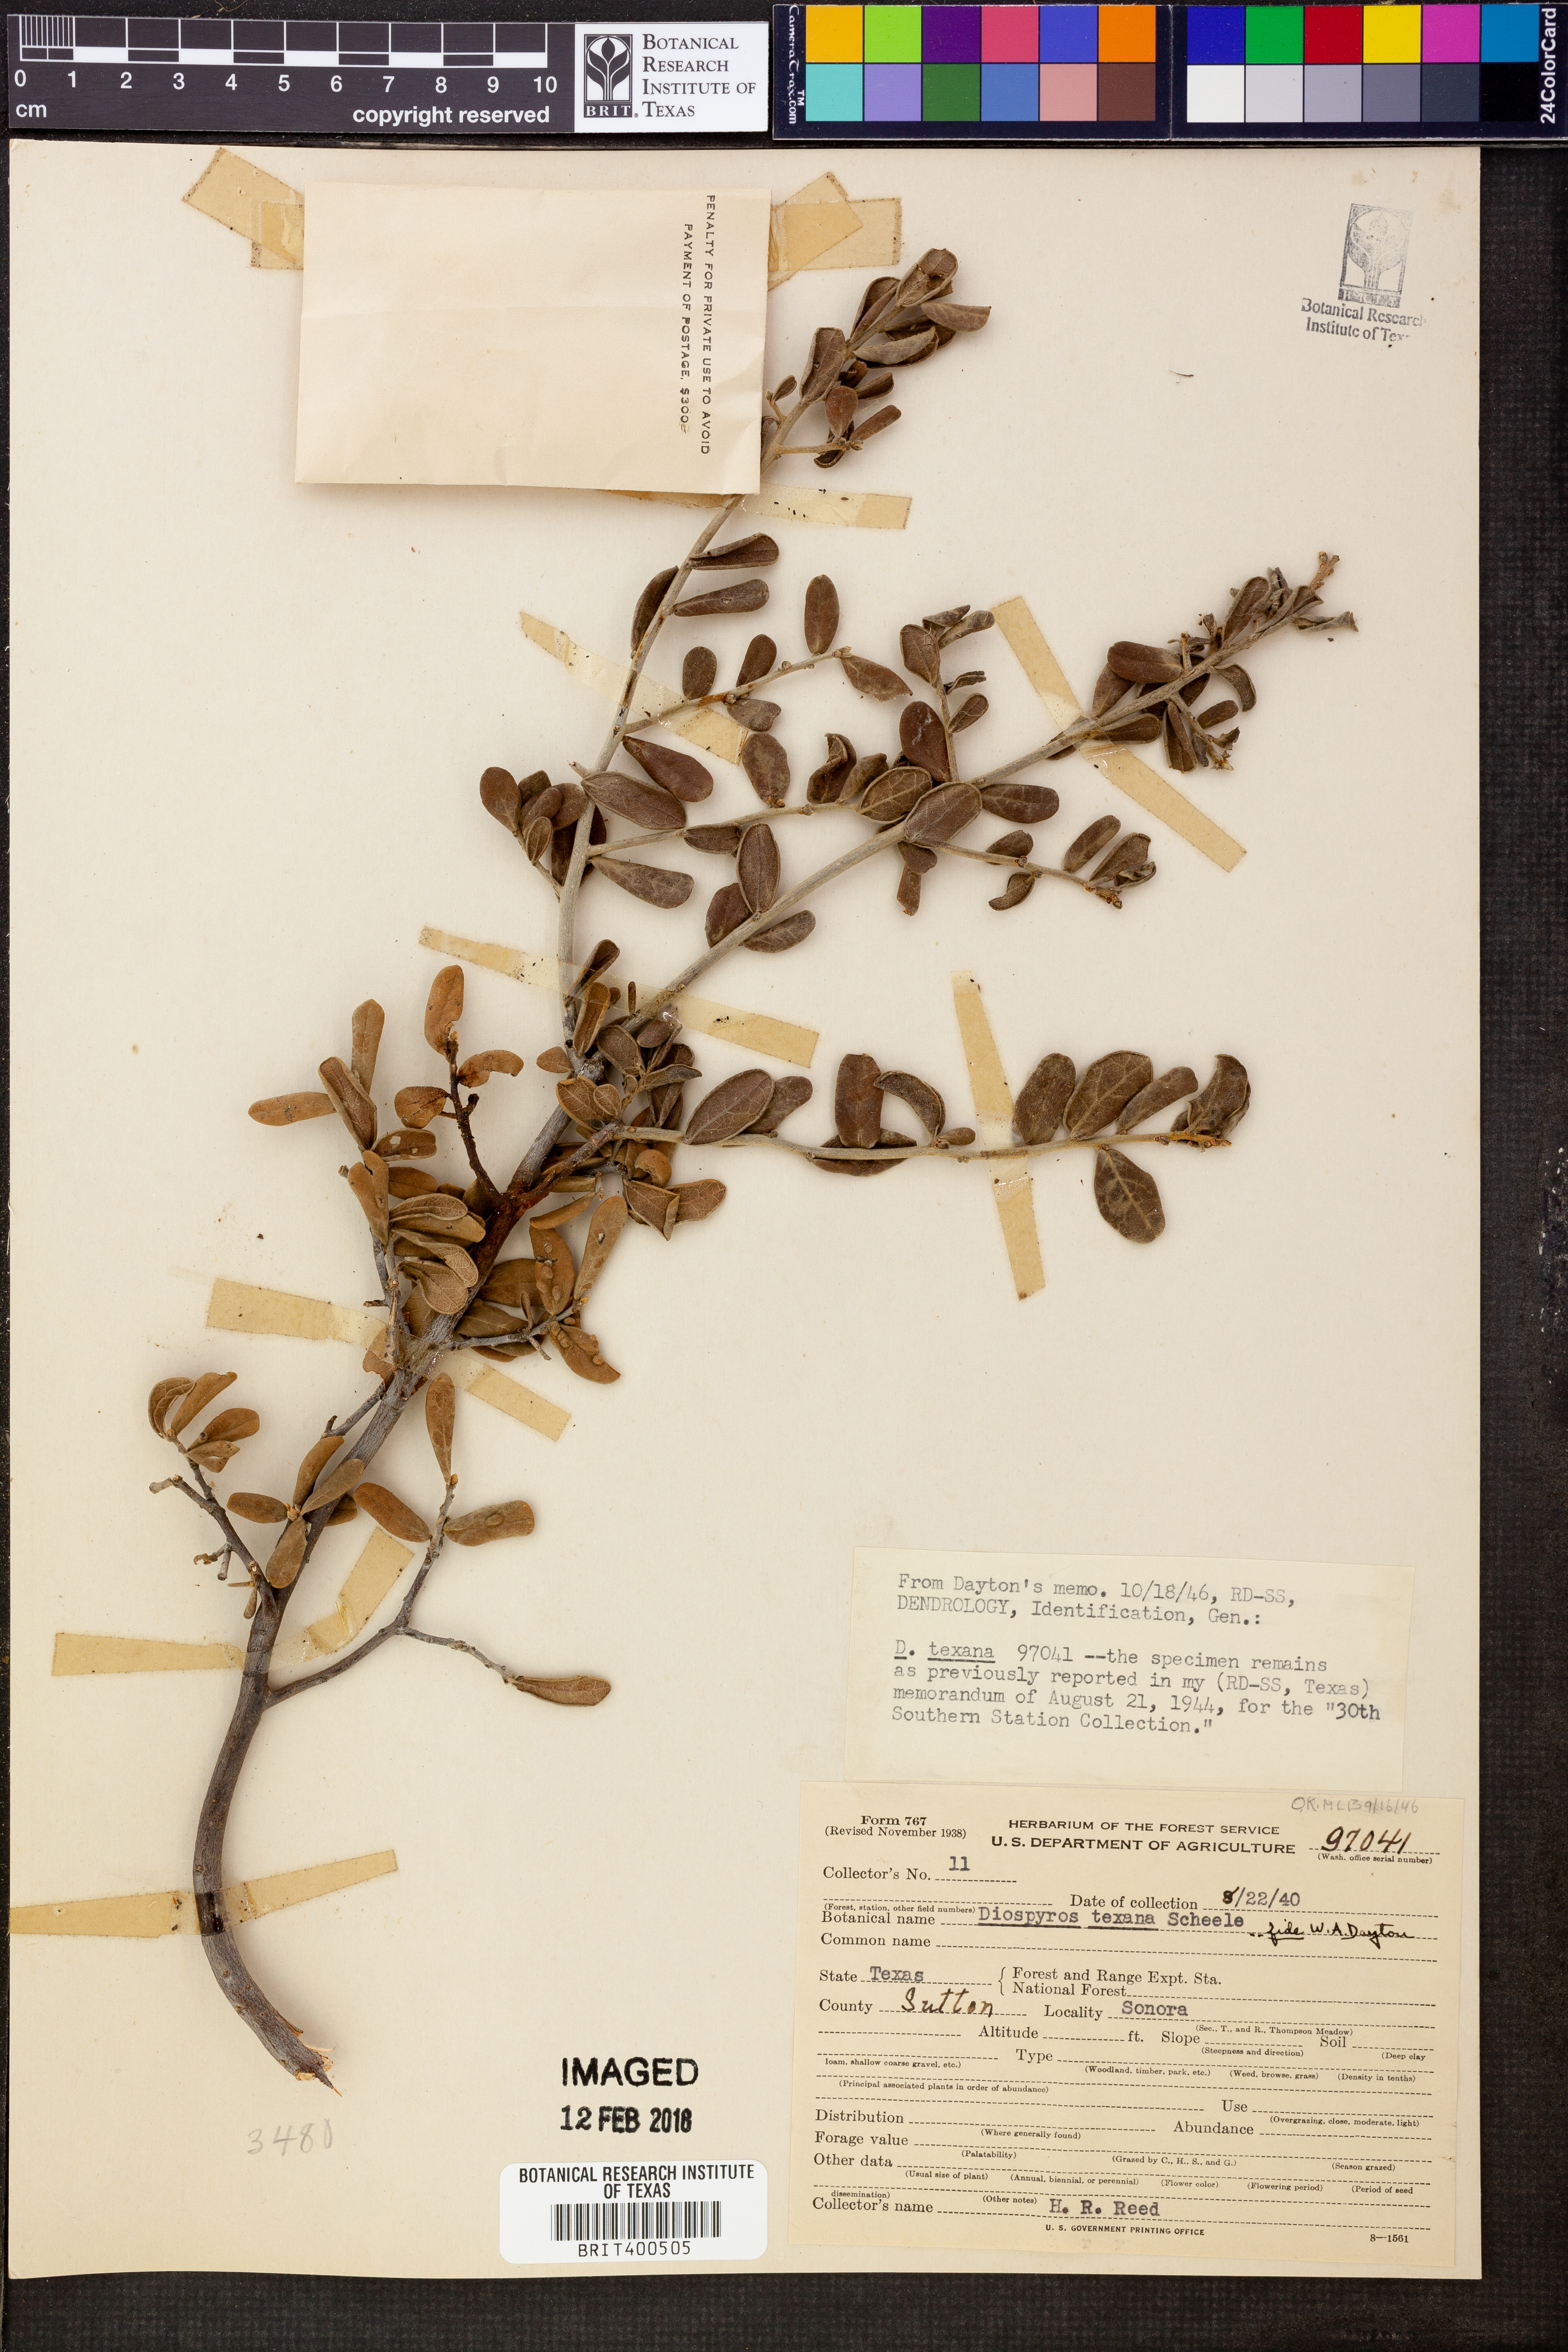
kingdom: Plantae
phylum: Tracheophyta
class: Magnoliopsida
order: Ericales
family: Ebenaceae
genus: Diospyros
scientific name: Diospyros texana
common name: Texas persimmon
